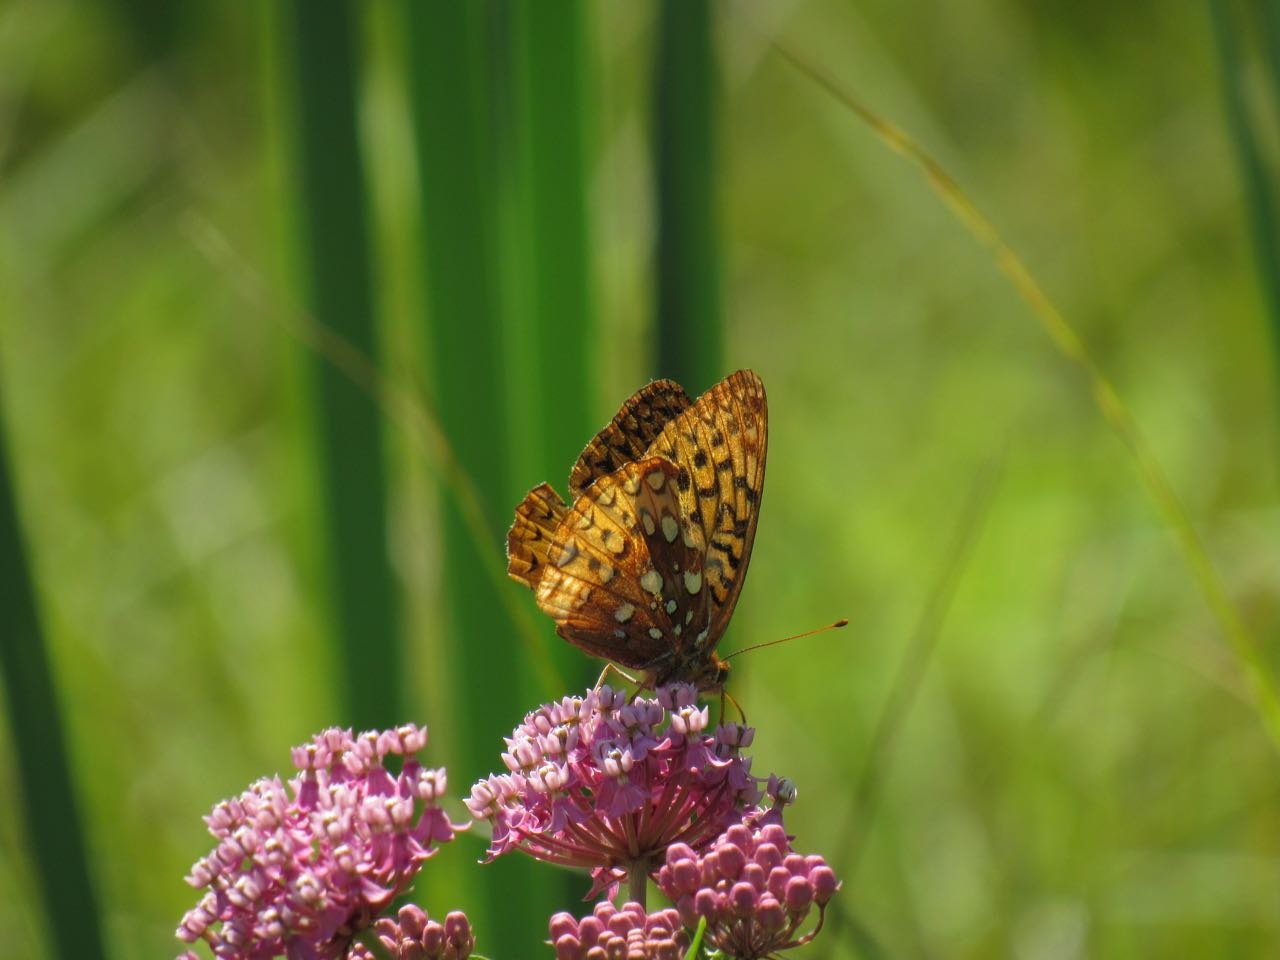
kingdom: Animalia
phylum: Arthropoda
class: Insecta
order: Lepidoptera
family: Nymphalidae
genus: Speyeria
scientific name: Speyeria cybele
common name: Great Spangled Fritillary
